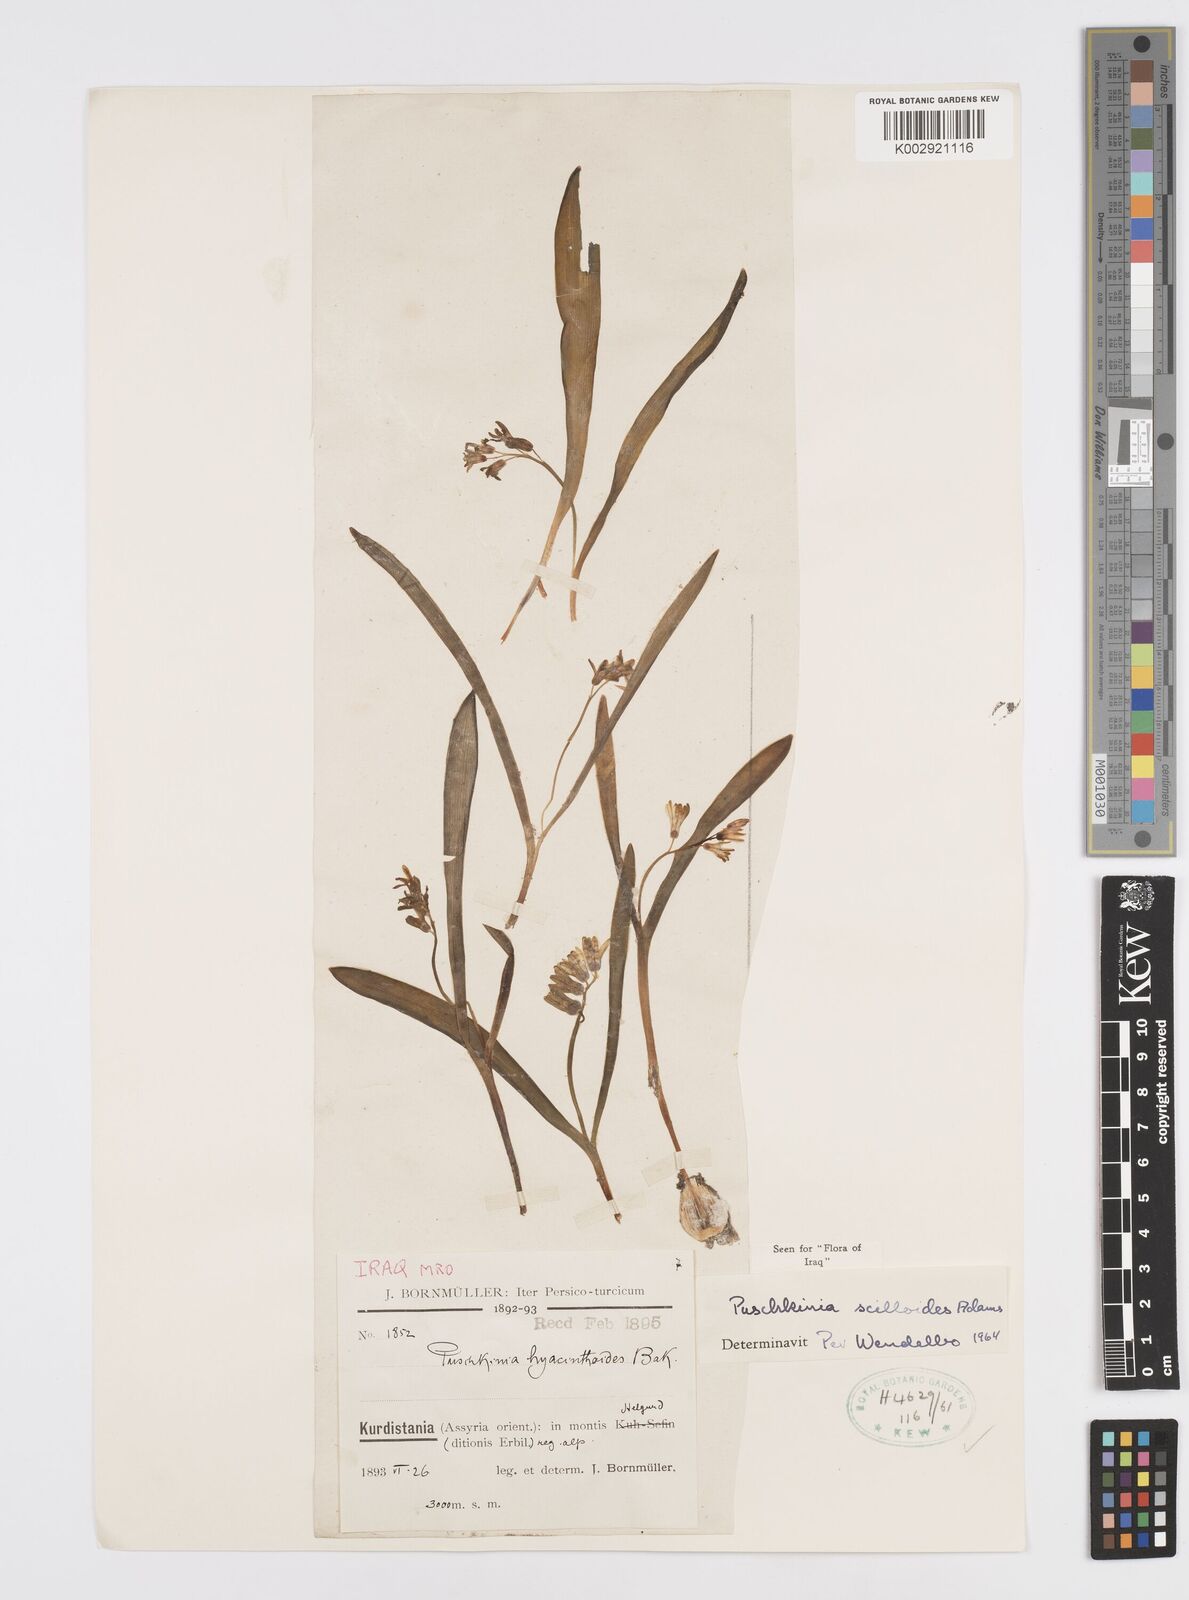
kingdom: Plantae
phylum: Tracheophyta
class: Liliopsida
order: Asparagales
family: Asparagaceae
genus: Puschkinia
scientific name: Puschkinia scilloides
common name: Striped squill
